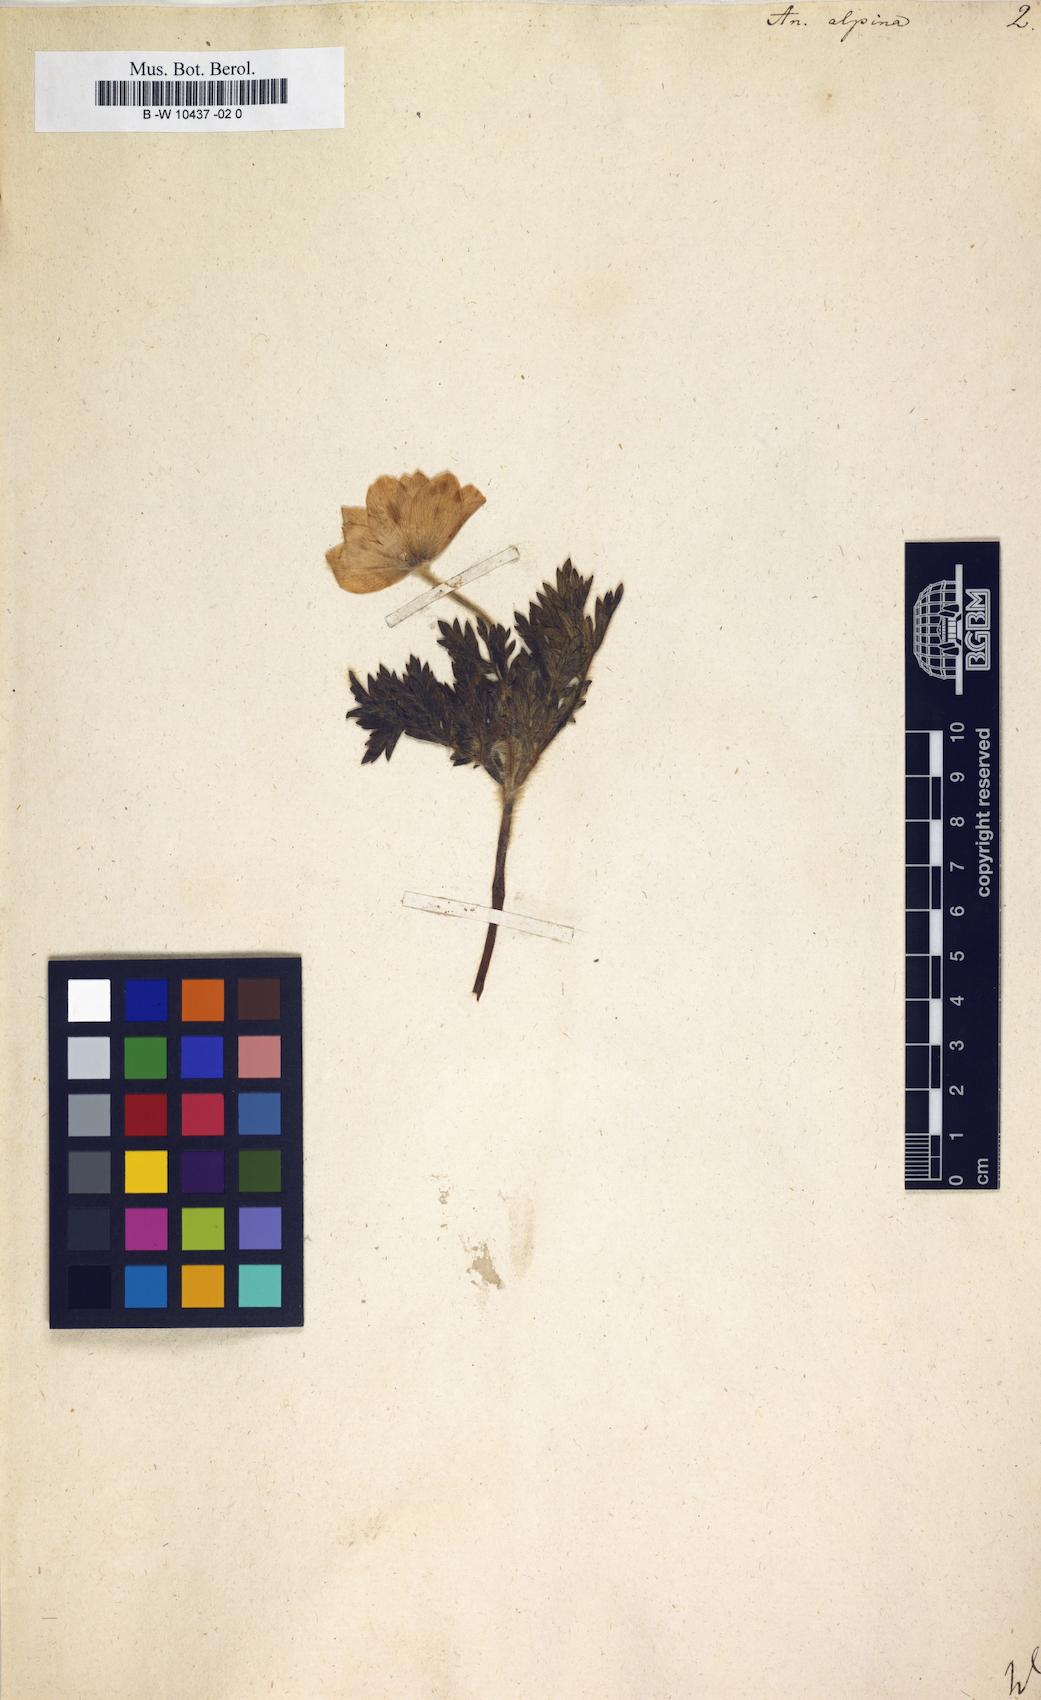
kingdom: Plantae
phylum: Tracheophyta
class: Magnoliopsida
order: Ranunculales
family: Ranunculaceae
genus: Pulsatilla
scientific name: Pulsatilla alpina
